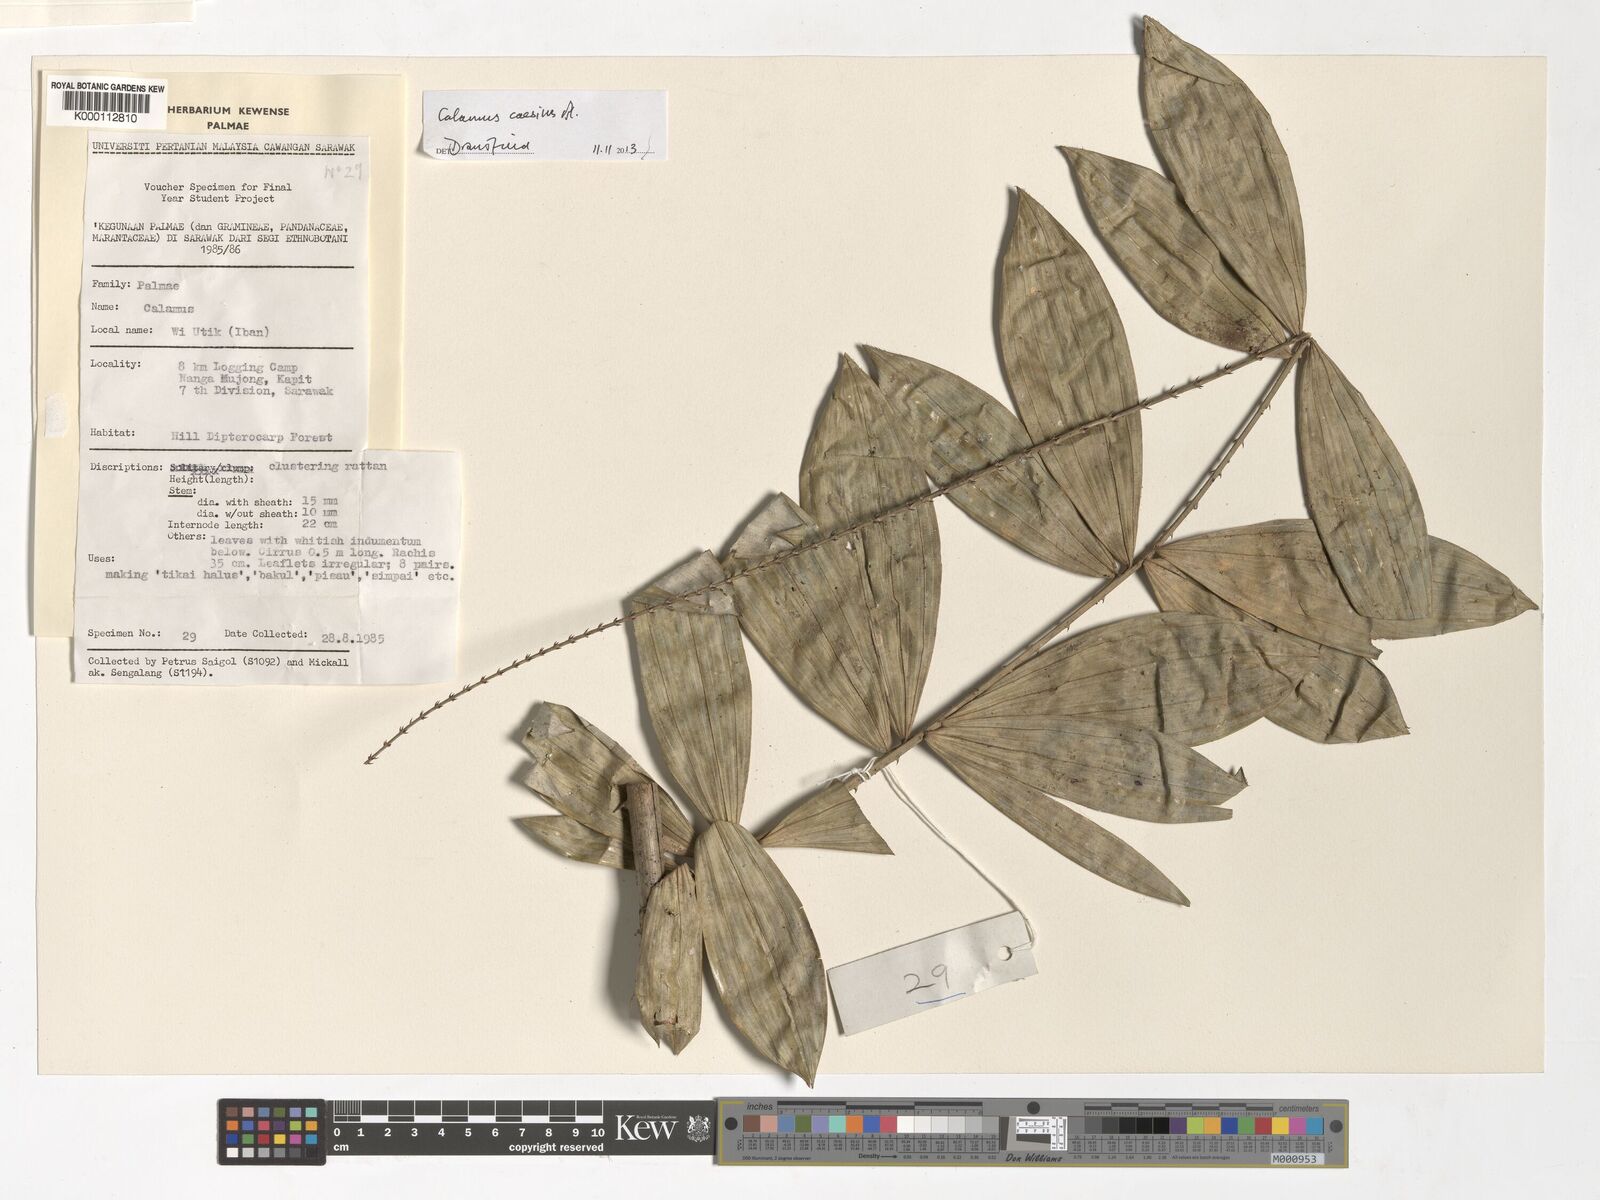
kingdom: Plantae
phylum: Tracheophyta
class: Liliopsida
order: Arecales
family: Arecaceae
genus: Calamus
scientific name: Calamus
